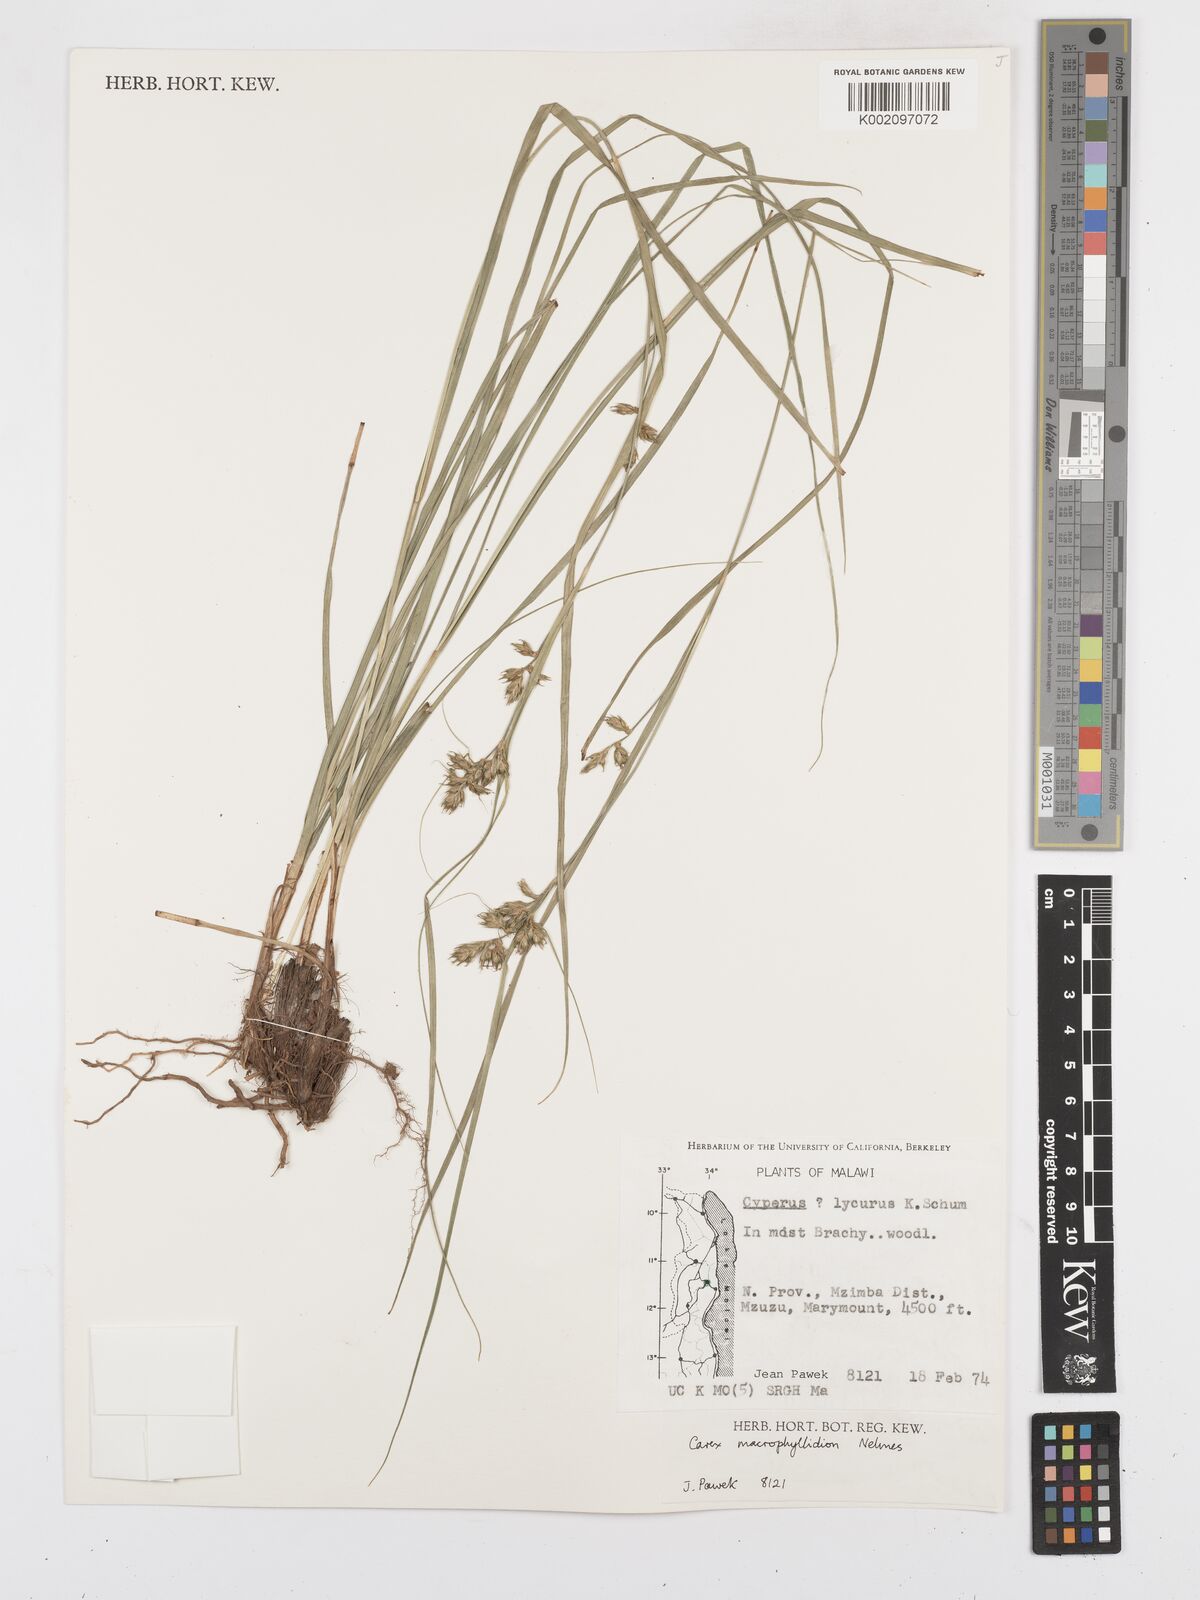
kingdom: Plantae
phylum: Tracheophyta
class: Liliopsida
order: Poales
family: Cyperaceae
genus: Carex
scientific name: Carex macrophyllidion
